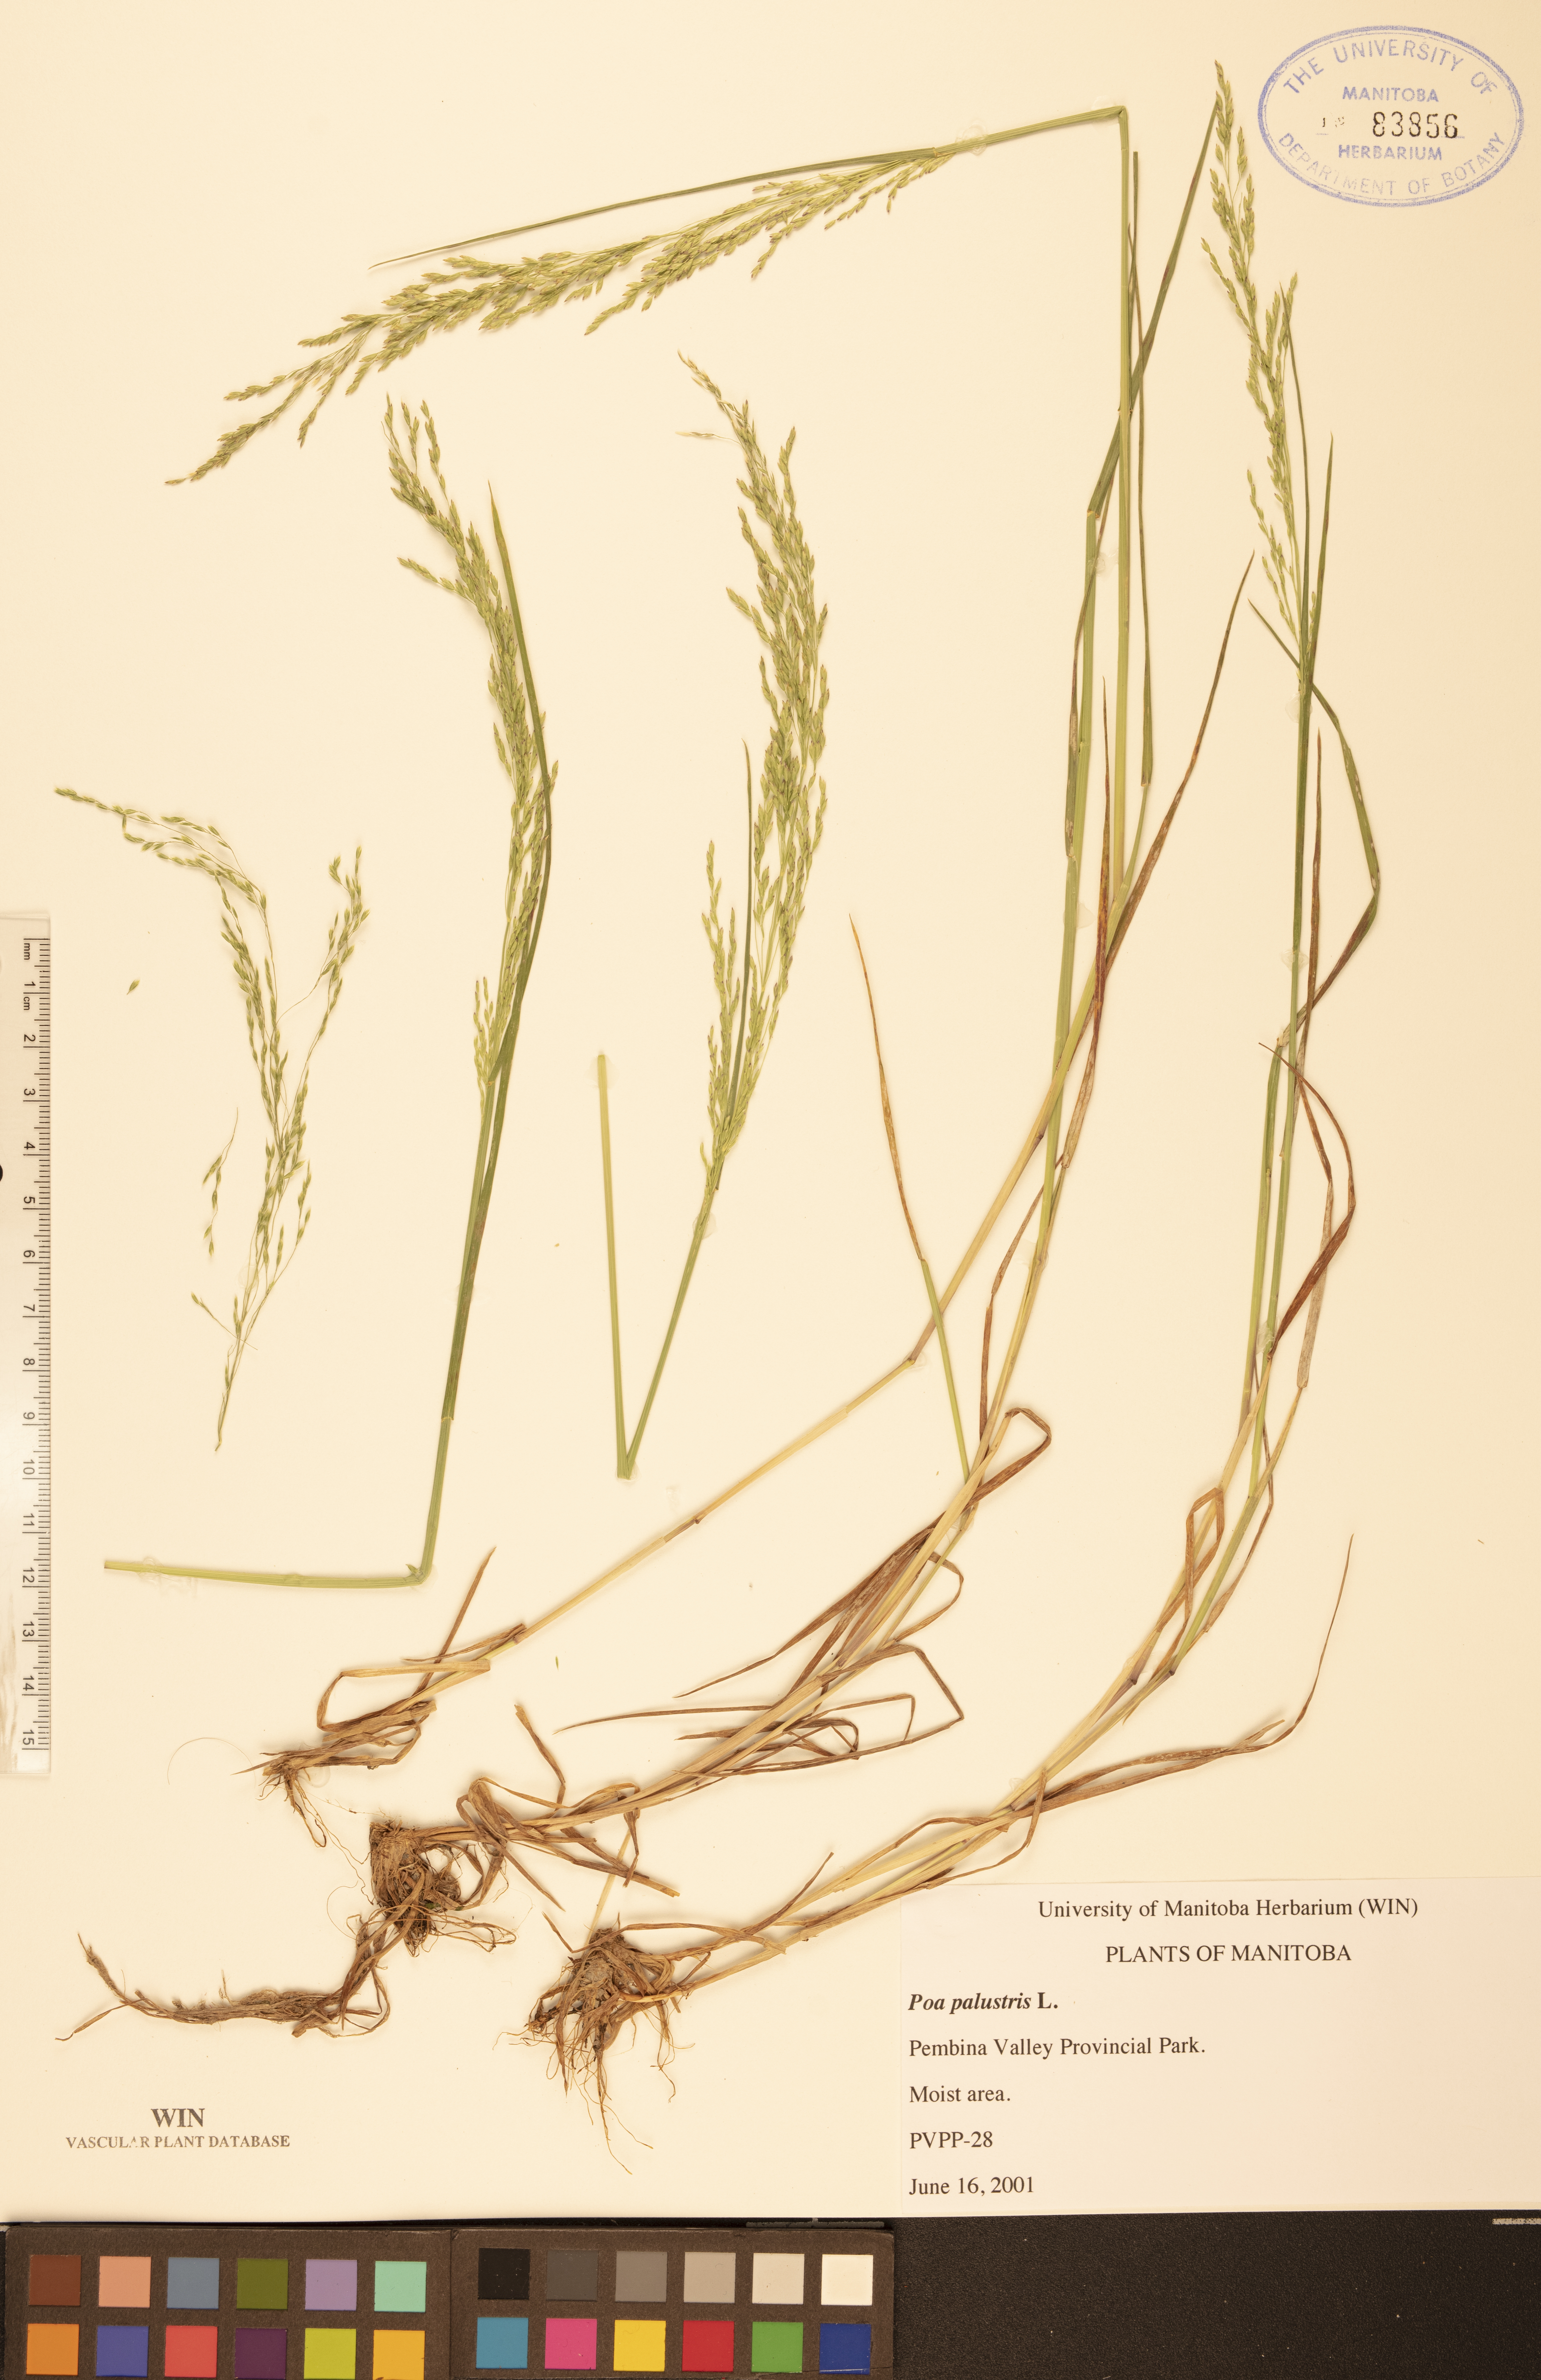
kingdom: Plantae
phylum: Tracheophyta
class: Liliopsida
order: Poales
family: Poaceae
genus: Poa
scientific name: Poa palustris
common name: Swamp meadow-grass
